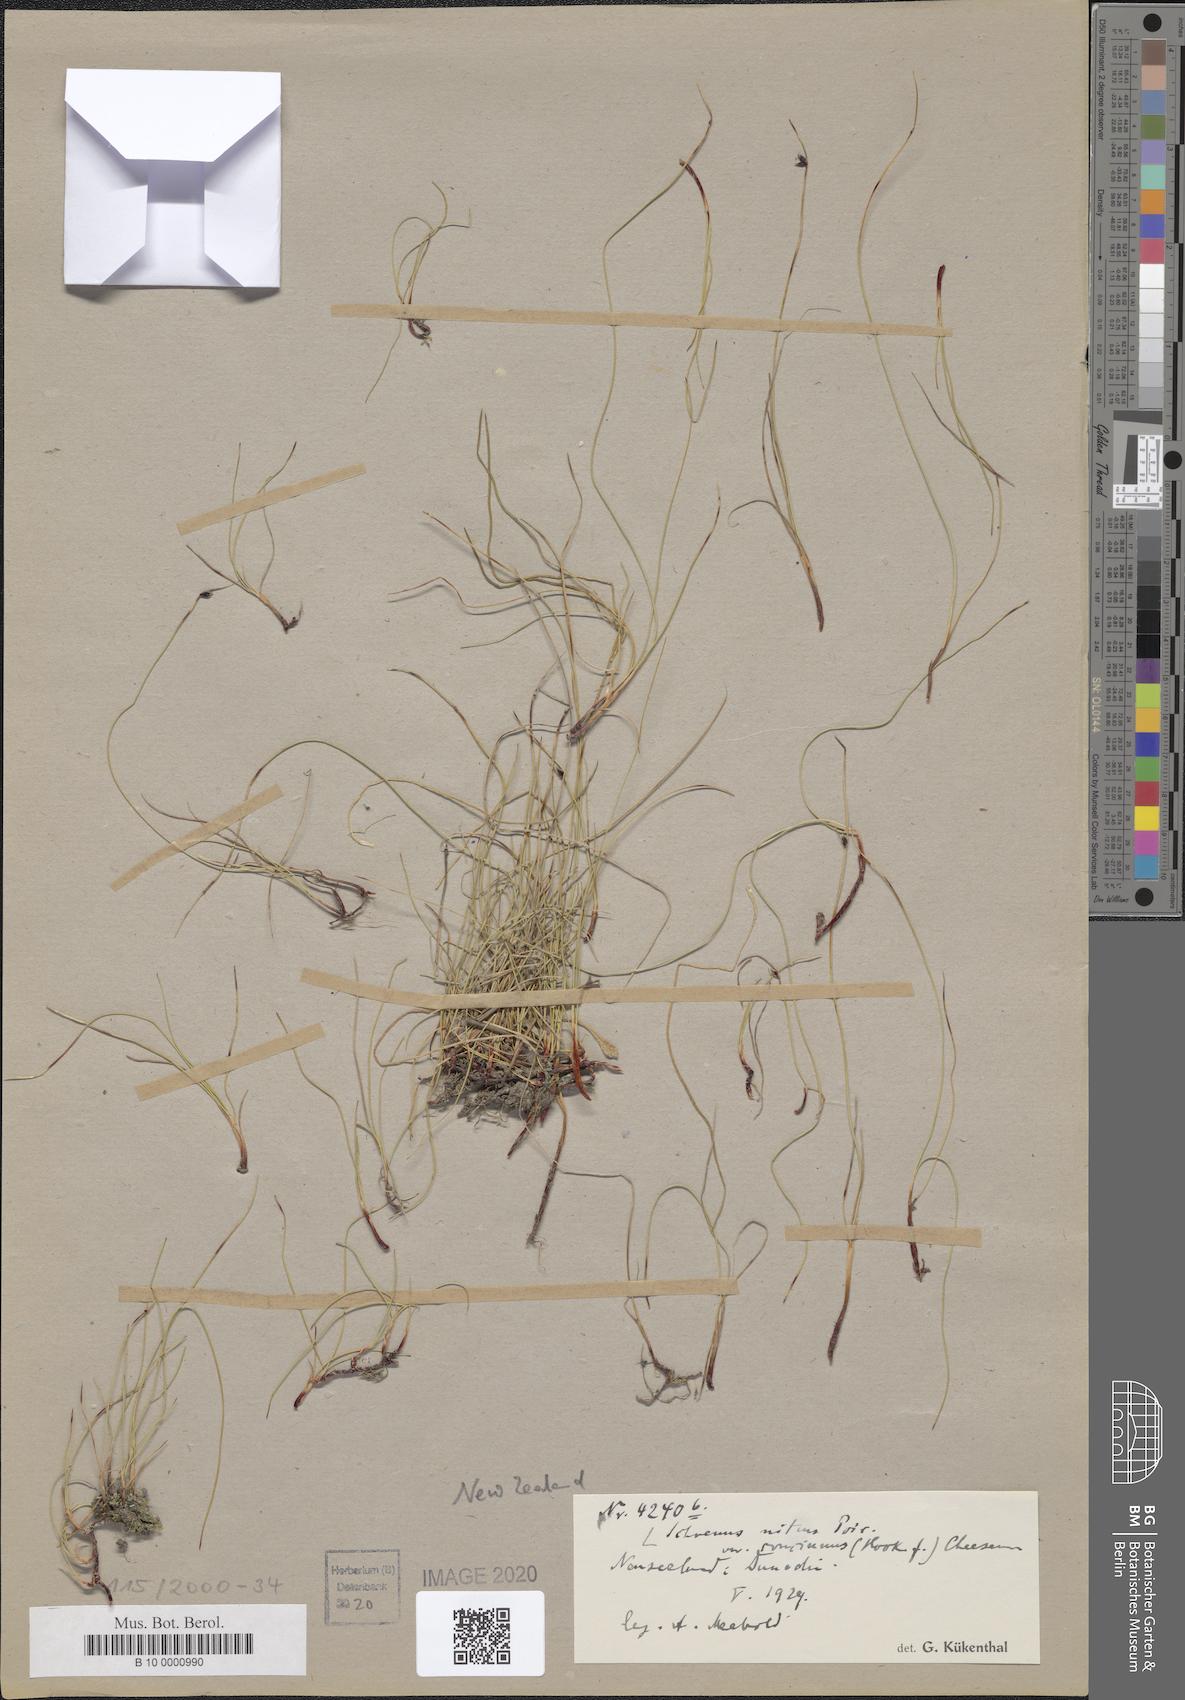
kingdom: Plantae
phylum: Tracheophyta
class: Liliopsida
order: Poales
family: Cyperaceae
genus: Schoenus
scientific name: Schoenus nitens
